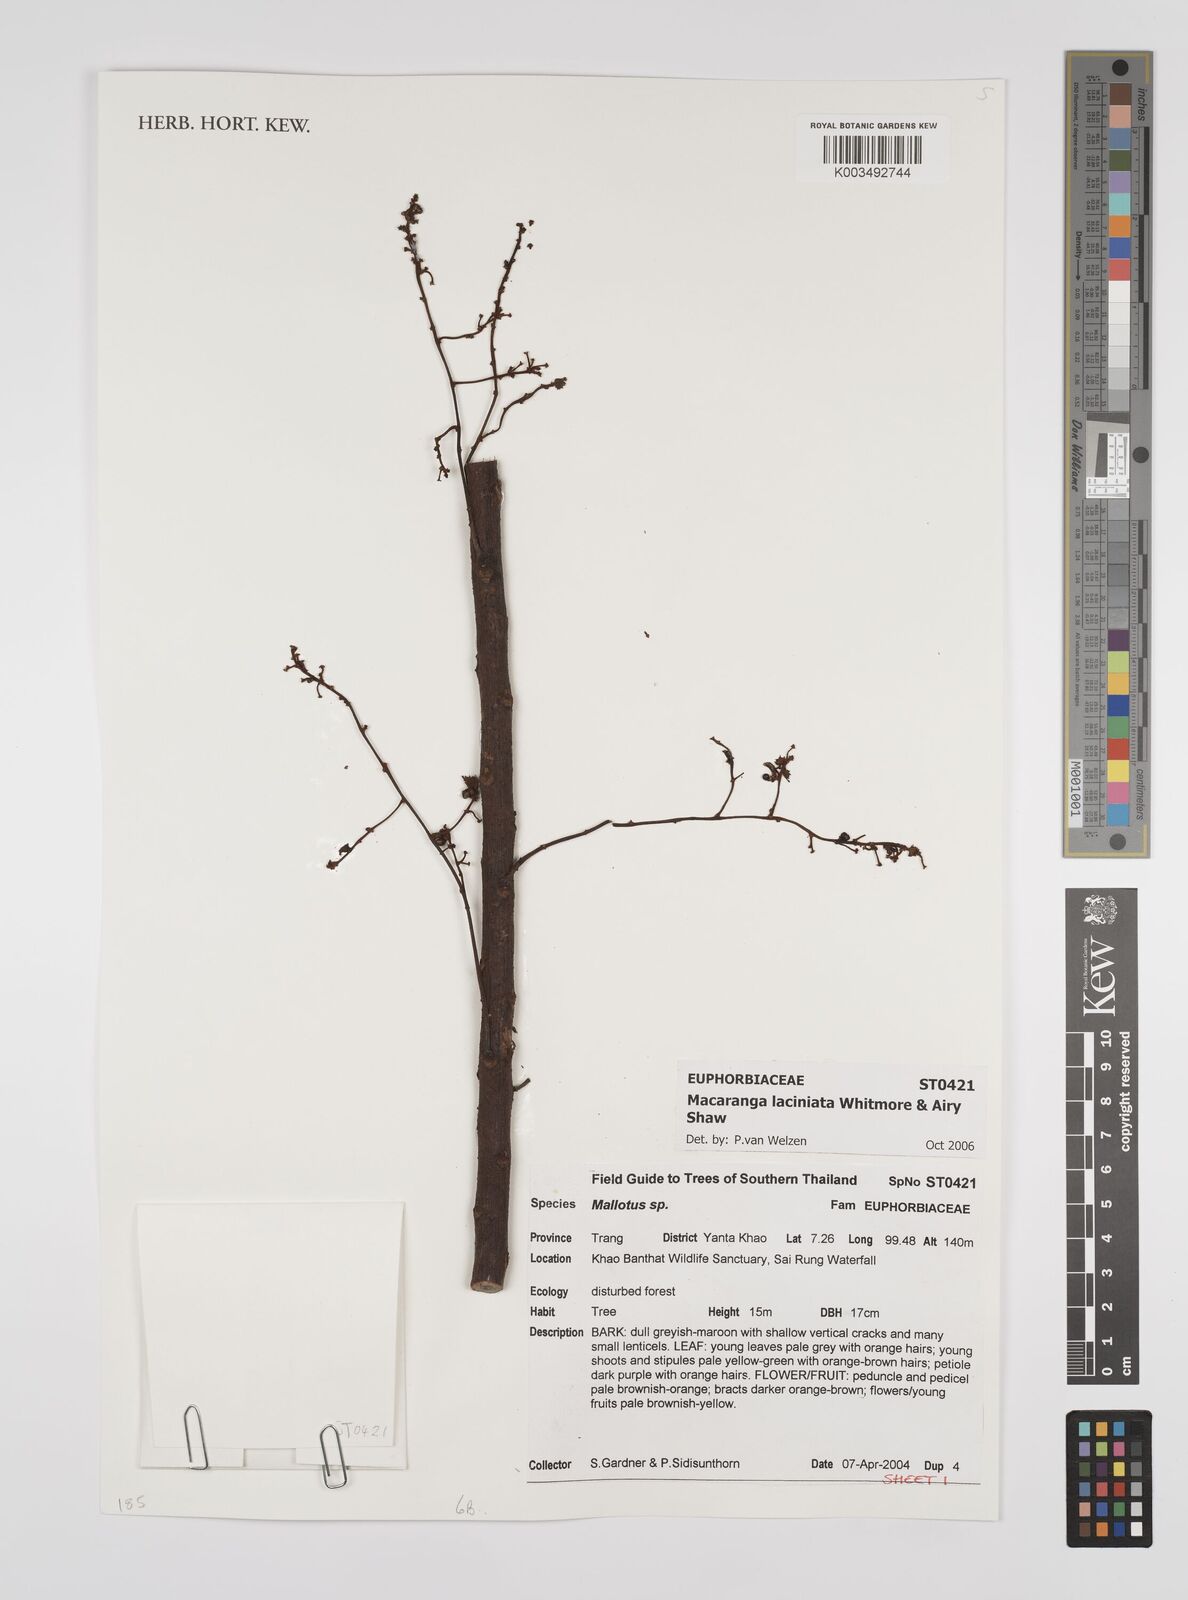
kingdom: Plantae
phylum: Tracheophyta
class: Magnoliopsida
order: Malpighiales
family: Euphorbiaceae
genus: Macaranga
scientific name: Macaranga laciniata
